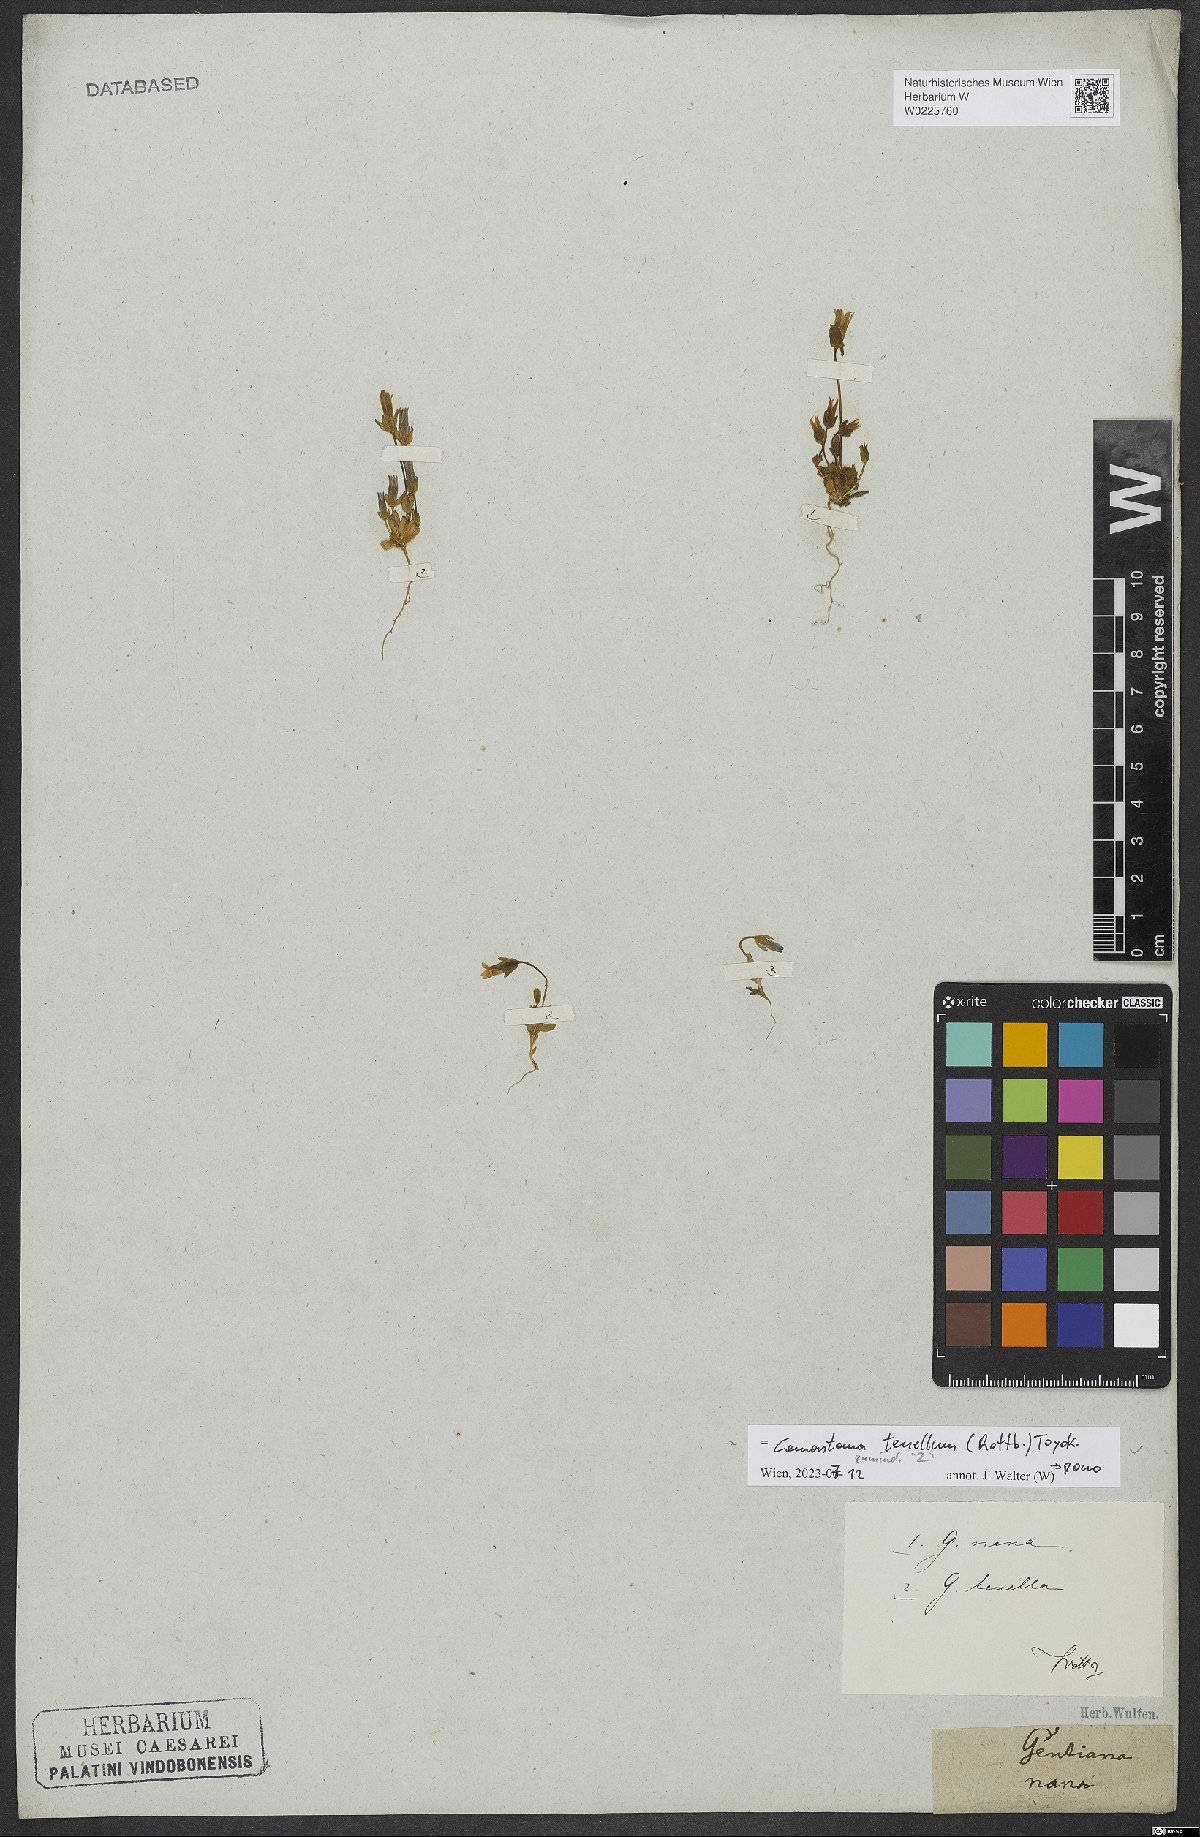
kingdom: Plantae
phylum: Tracheophyta
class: Magnoliopsida
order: Gentianales
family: Gentianaceae
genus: Comastoma
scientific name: Comastoma tenellum
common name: Dane's dwarf gentian
